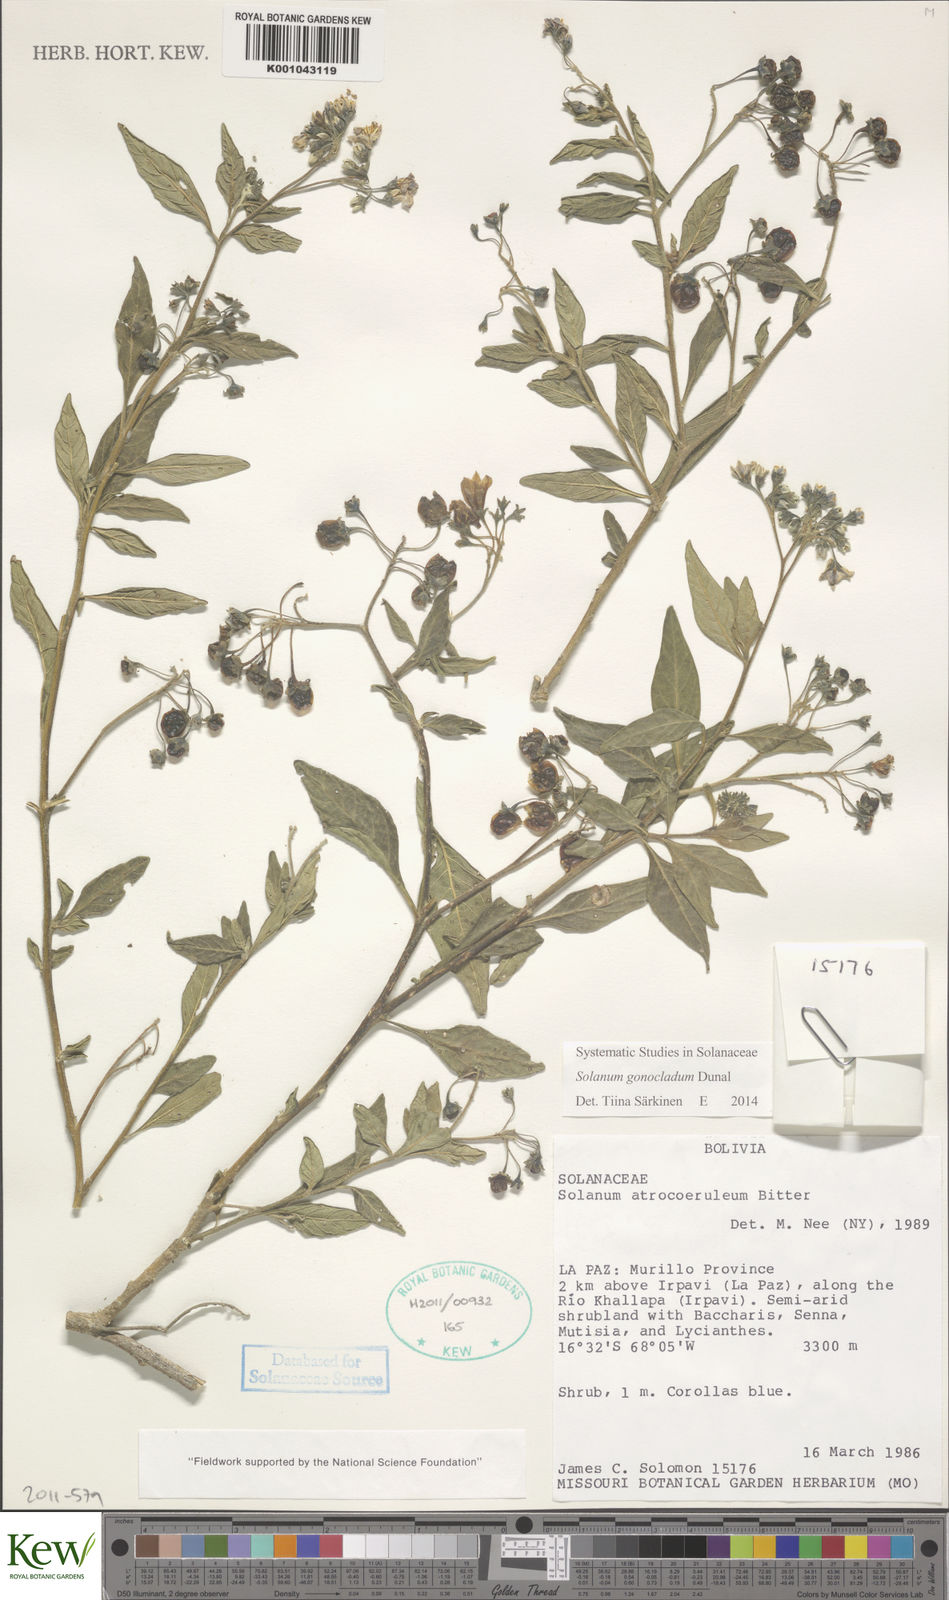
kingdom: Plantae
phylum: Tracheophyta
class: Magnoliopsida
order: Solanales
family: Solanaceae
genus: Solanum
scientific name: Solanum gonocladum
